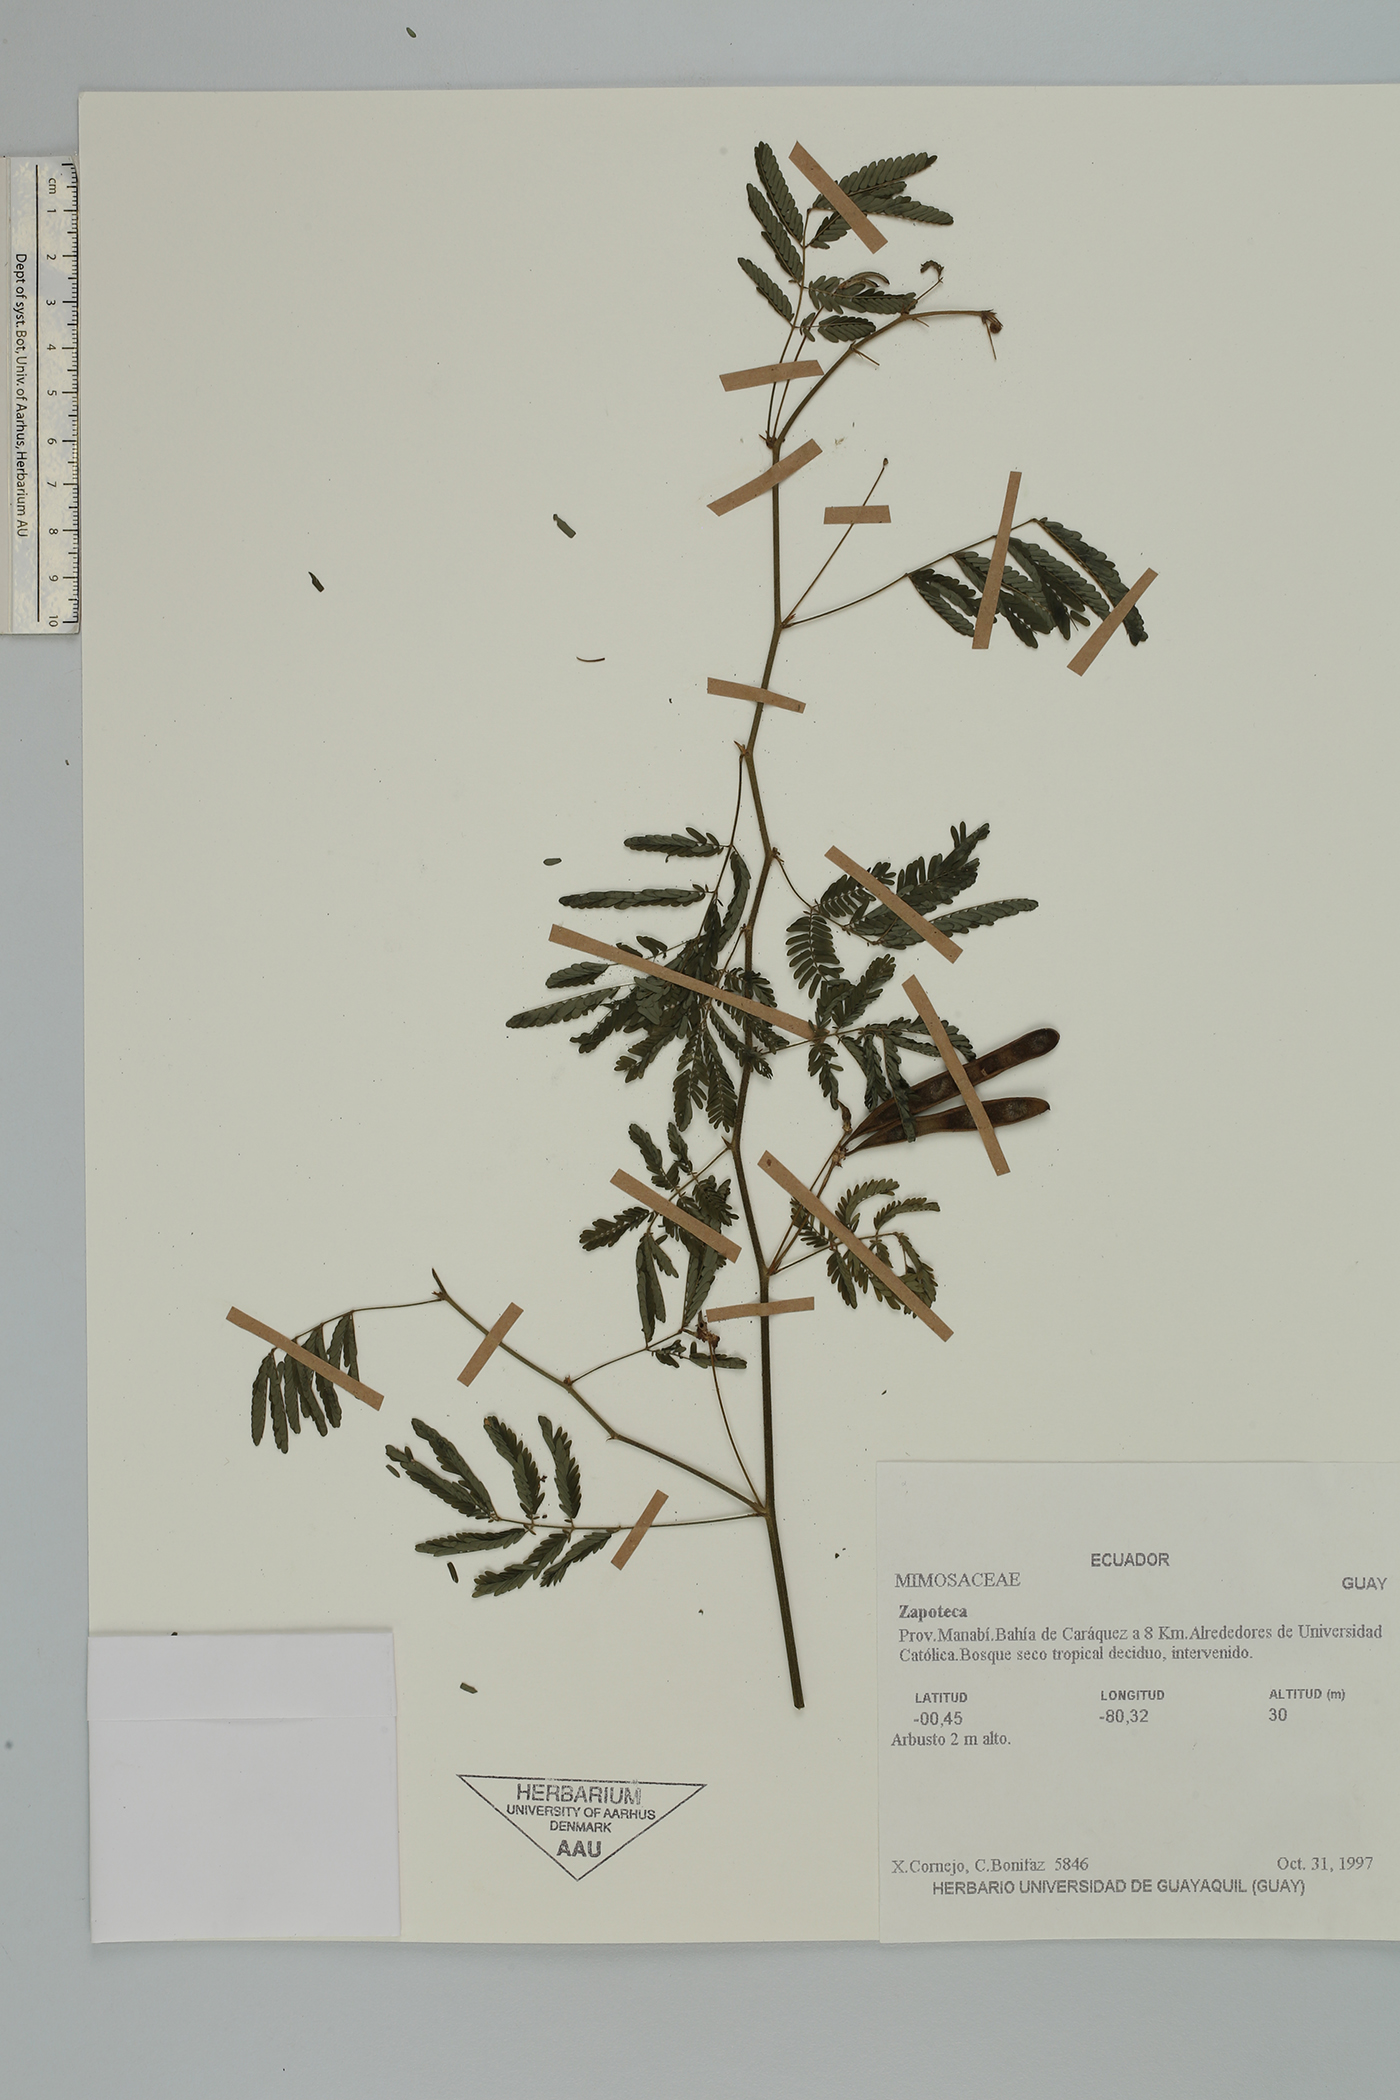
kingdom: Plantae
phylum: Tracheophyta
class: Magnoliopsida
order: Fabales
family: Fabaceae
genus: Zapoteca
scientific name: Zapoteca
